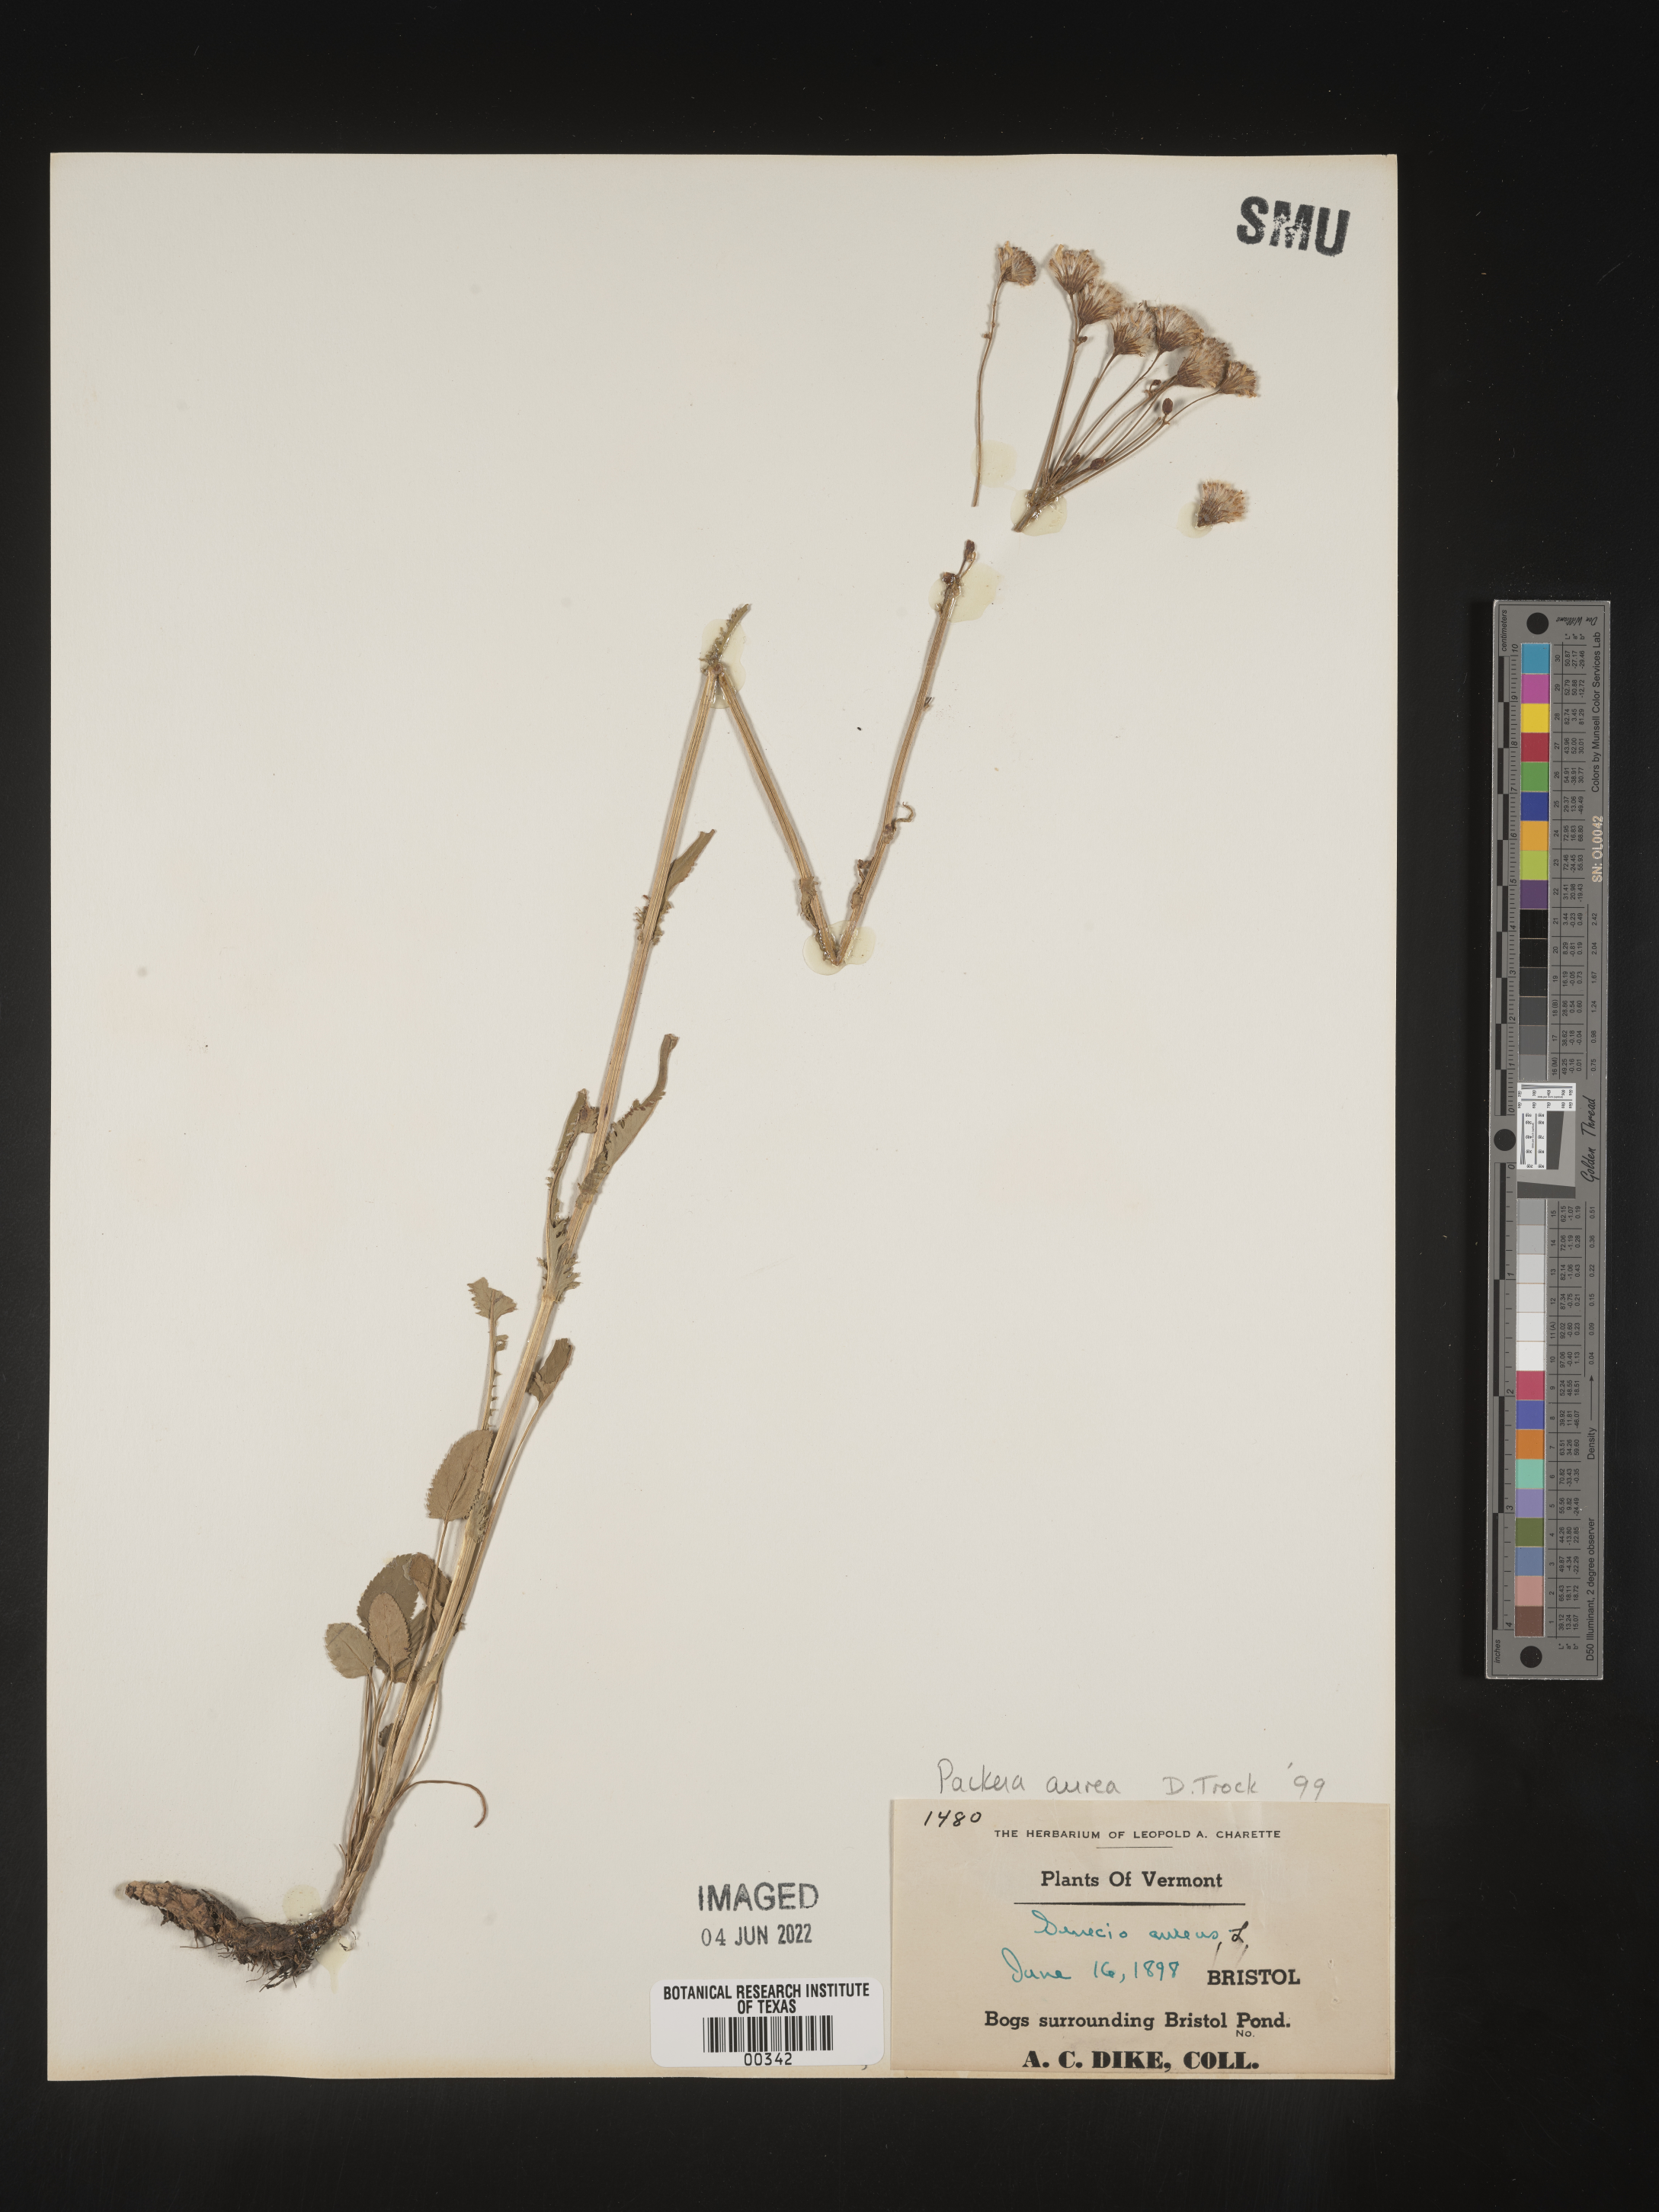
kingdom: Plantae
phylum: Tracheophyta
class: Magnoliopsida
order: Asterales
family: Asteraceae
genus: Packera
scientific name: Packera aurea
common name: Golden groundsel
